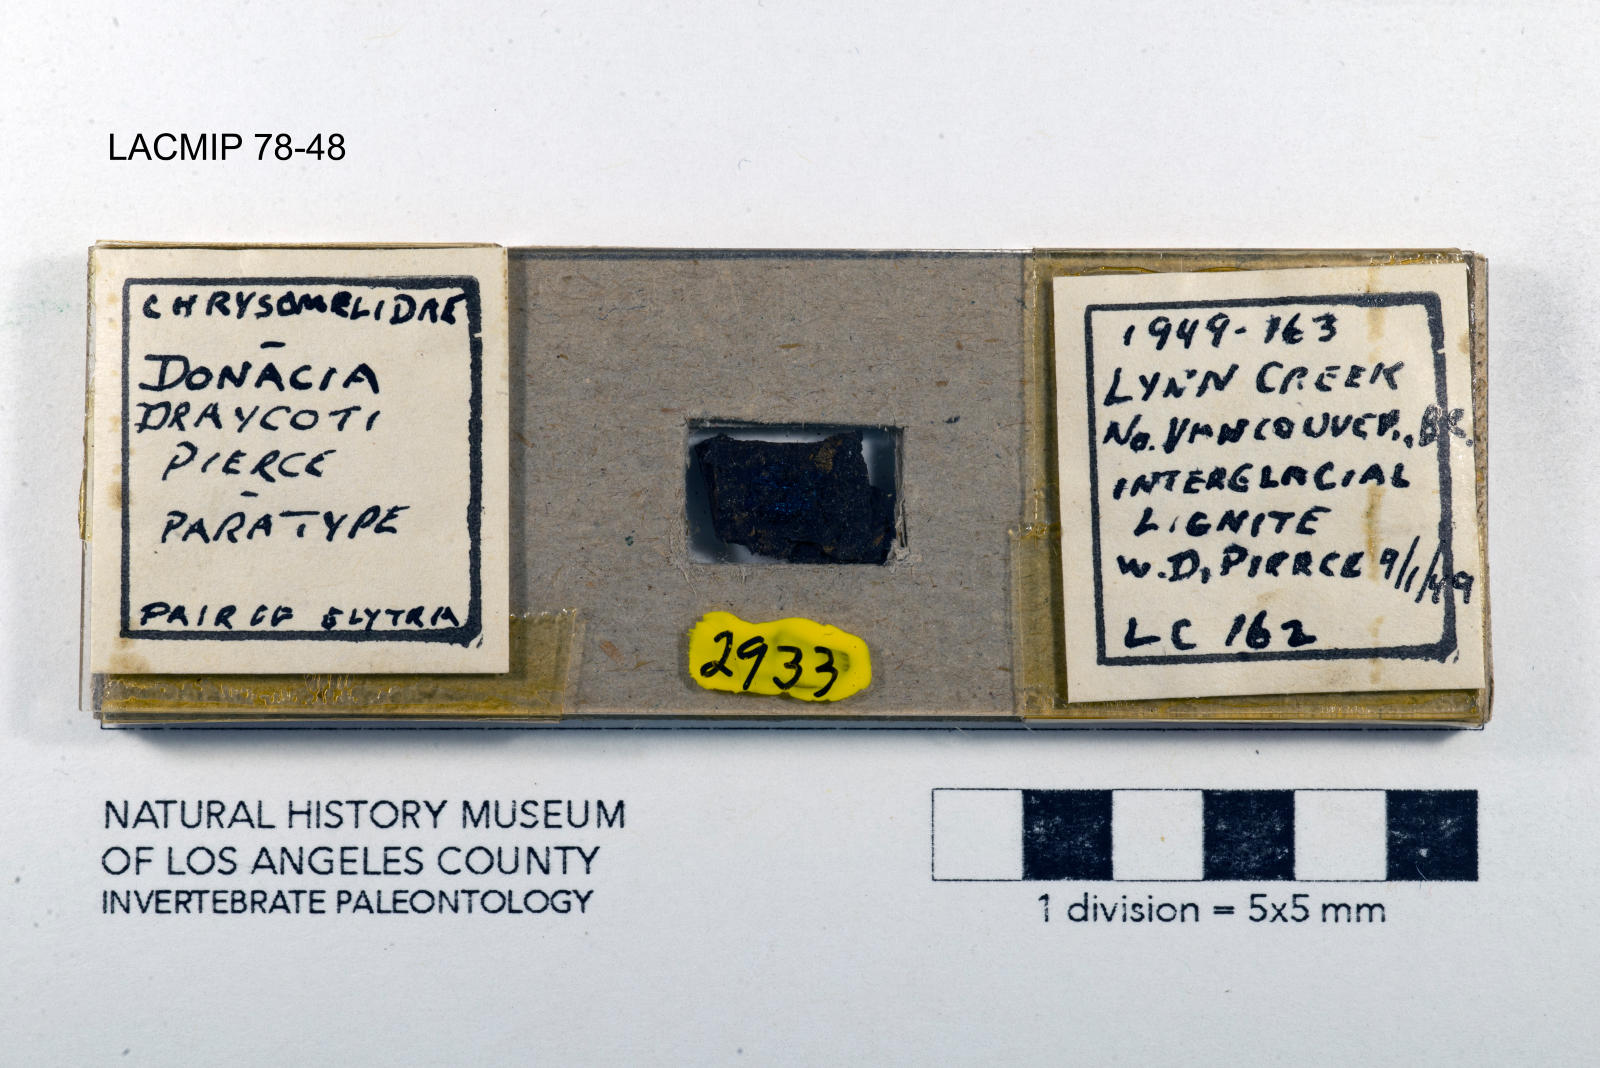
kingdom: Animalia
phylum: Arthropoda
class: Insecta
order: Coleoptera
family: Chrysomelidae
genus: Donacia
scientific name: Donacia draycoti
